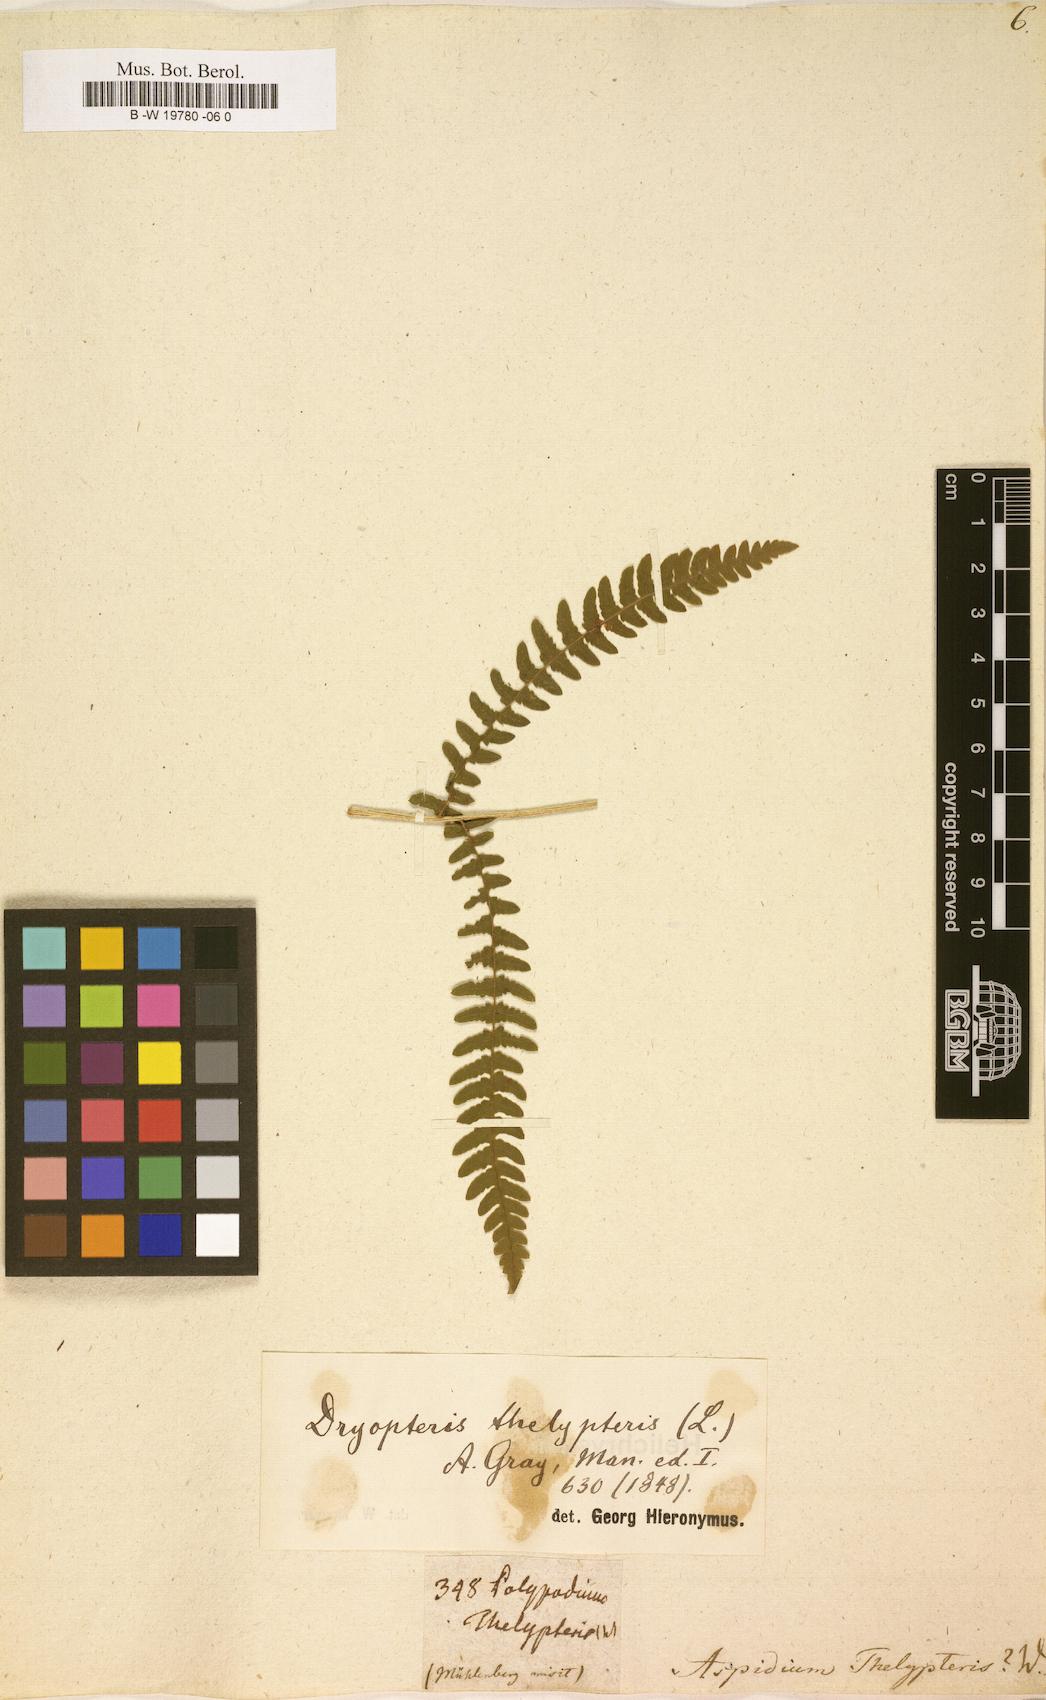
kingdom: Plantae
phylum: Tracheophyta
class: Polypodiopsida
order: Polypodiales
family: Thelypteridaceae
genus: Thelypteris
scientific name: Thelypteris palustris
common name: Marsh fern
